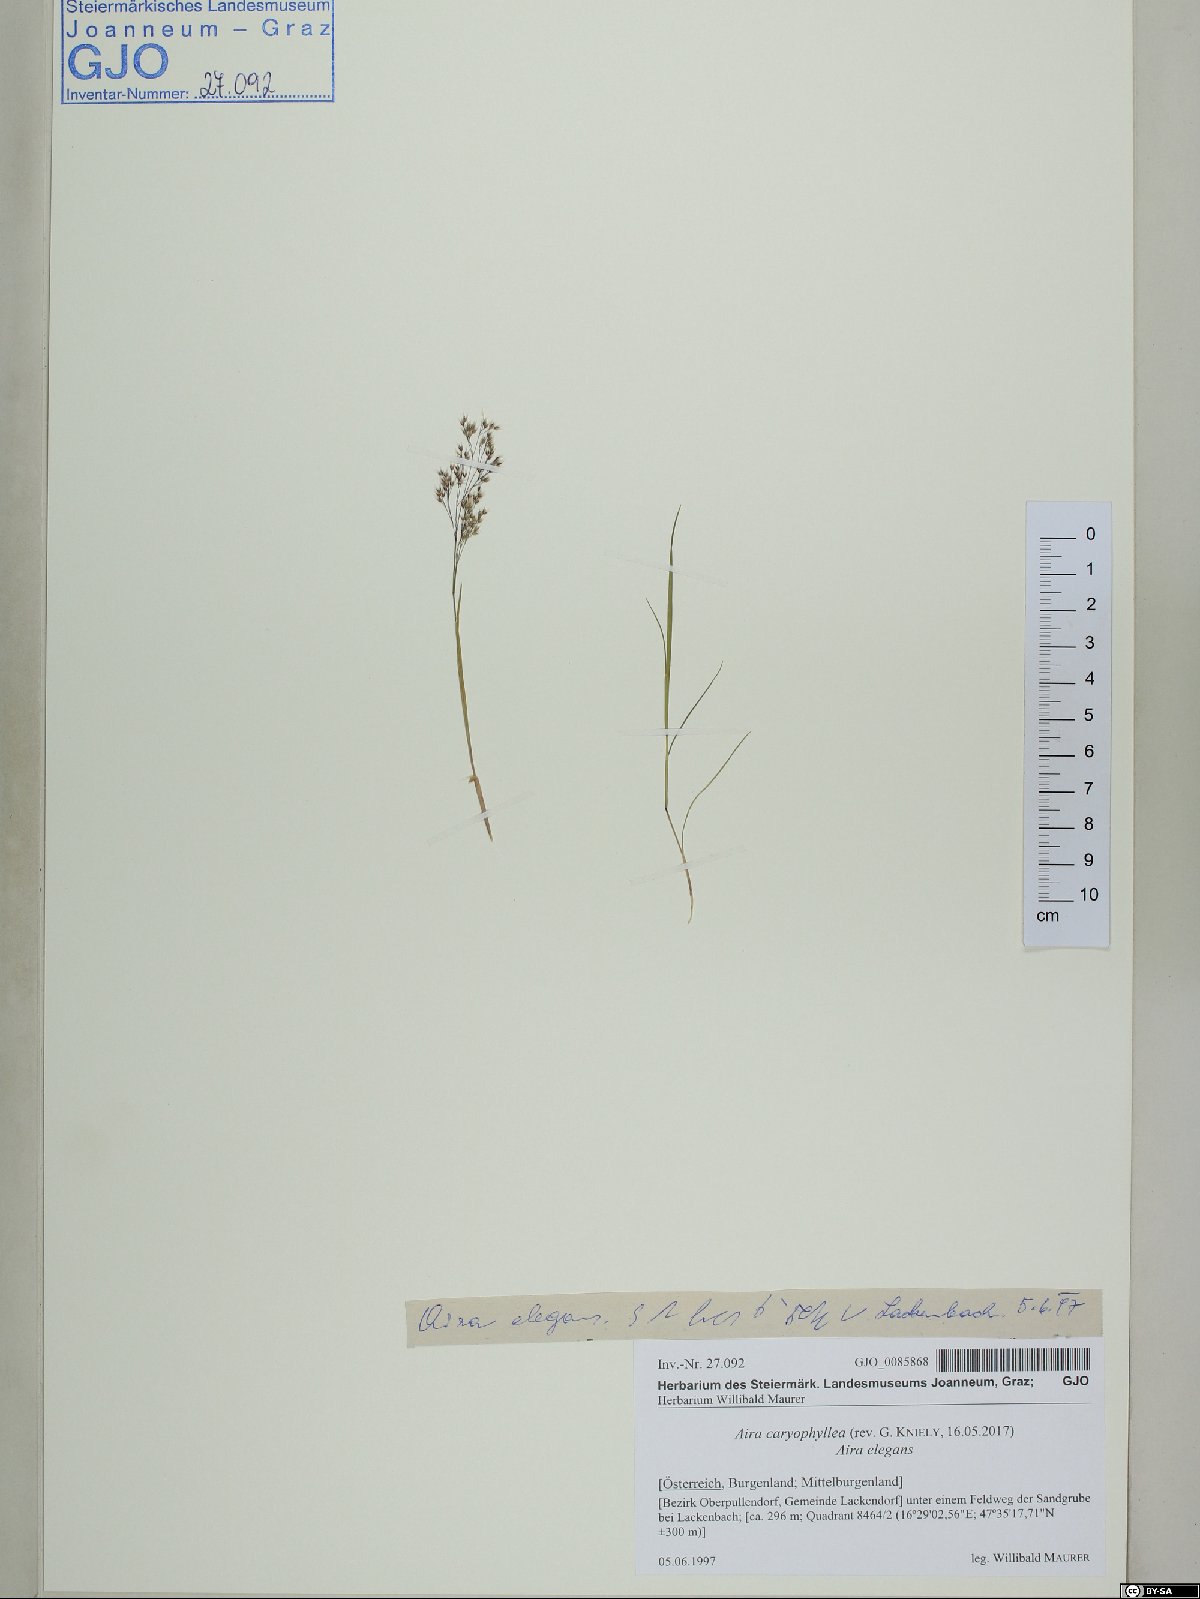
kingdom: Plantae
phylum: Tracheophyta
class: Liliopsida
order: Poales
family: Poaceae
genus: Aira
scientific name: Aira caryophyllea
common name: Silver hairgrass
